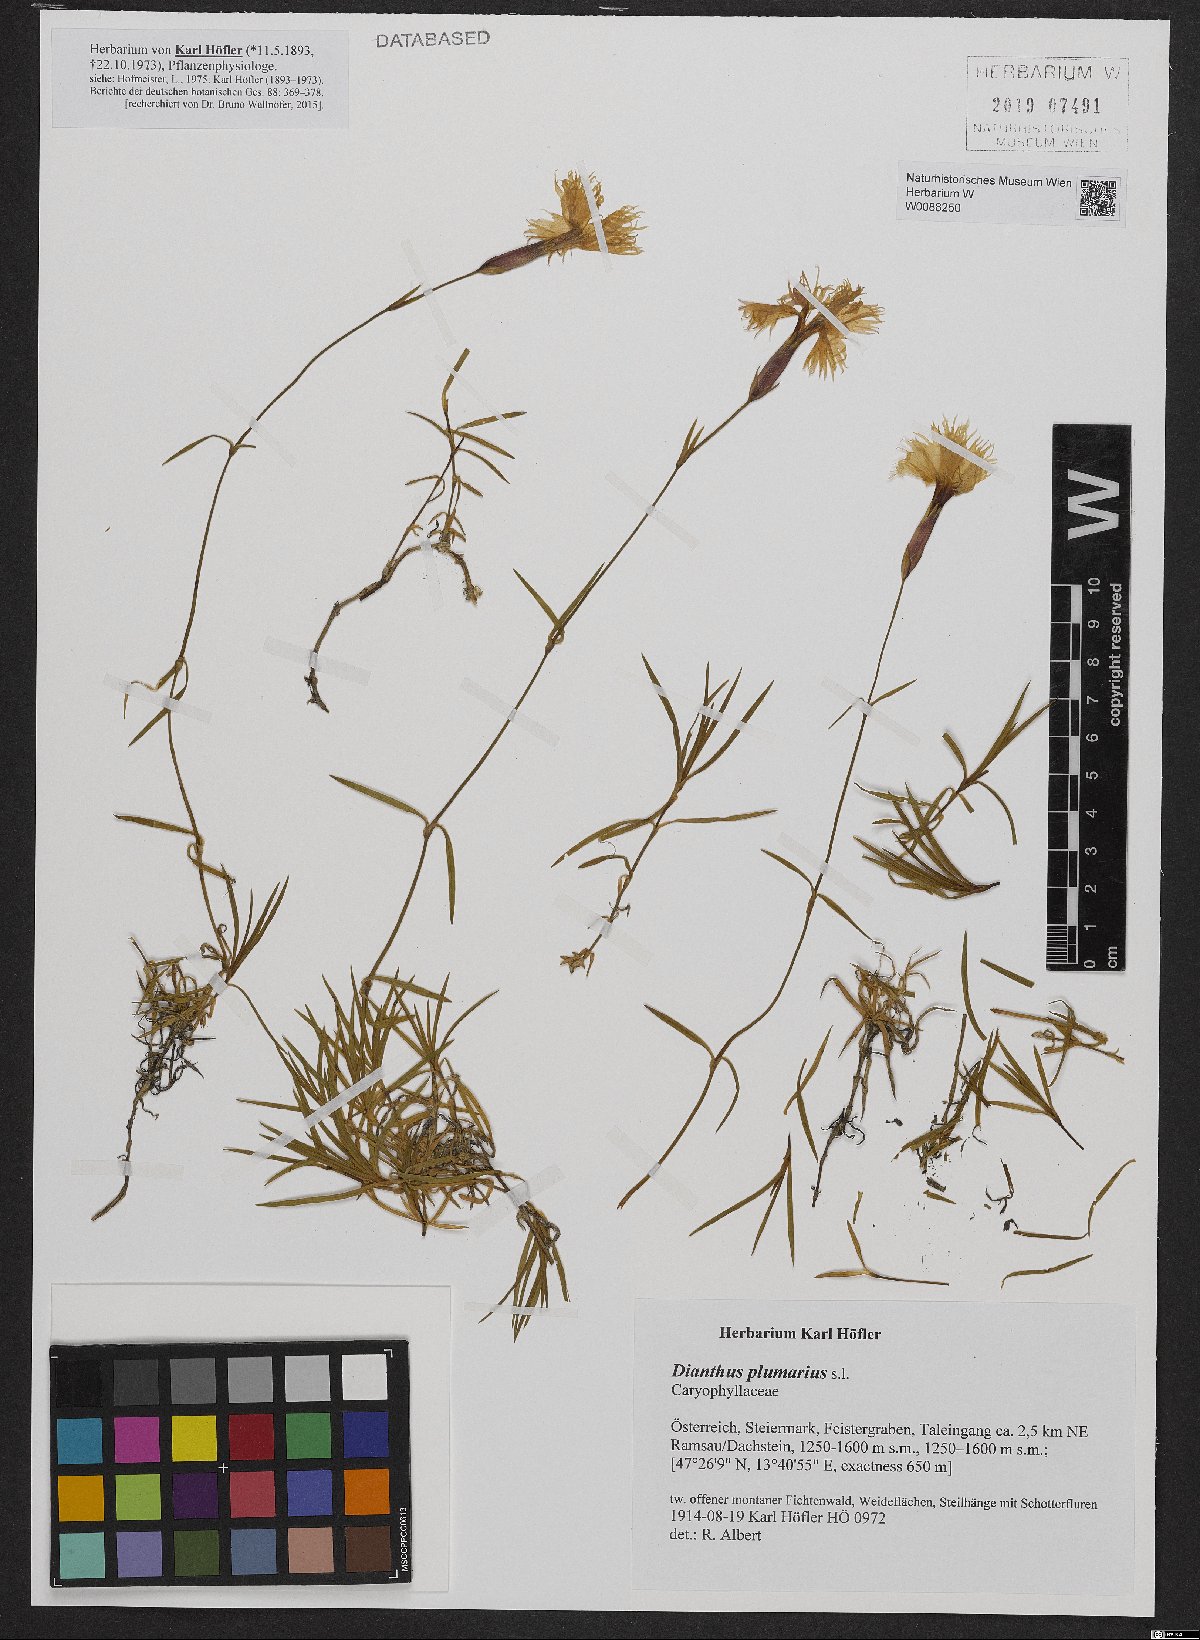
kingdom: Plantae
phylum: Tracheophyta
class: Magnoliopsida
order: Caryophyllales
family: Caryophyllaceae
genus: Dianthus
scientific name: Dianthus plumarius
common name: Pink
